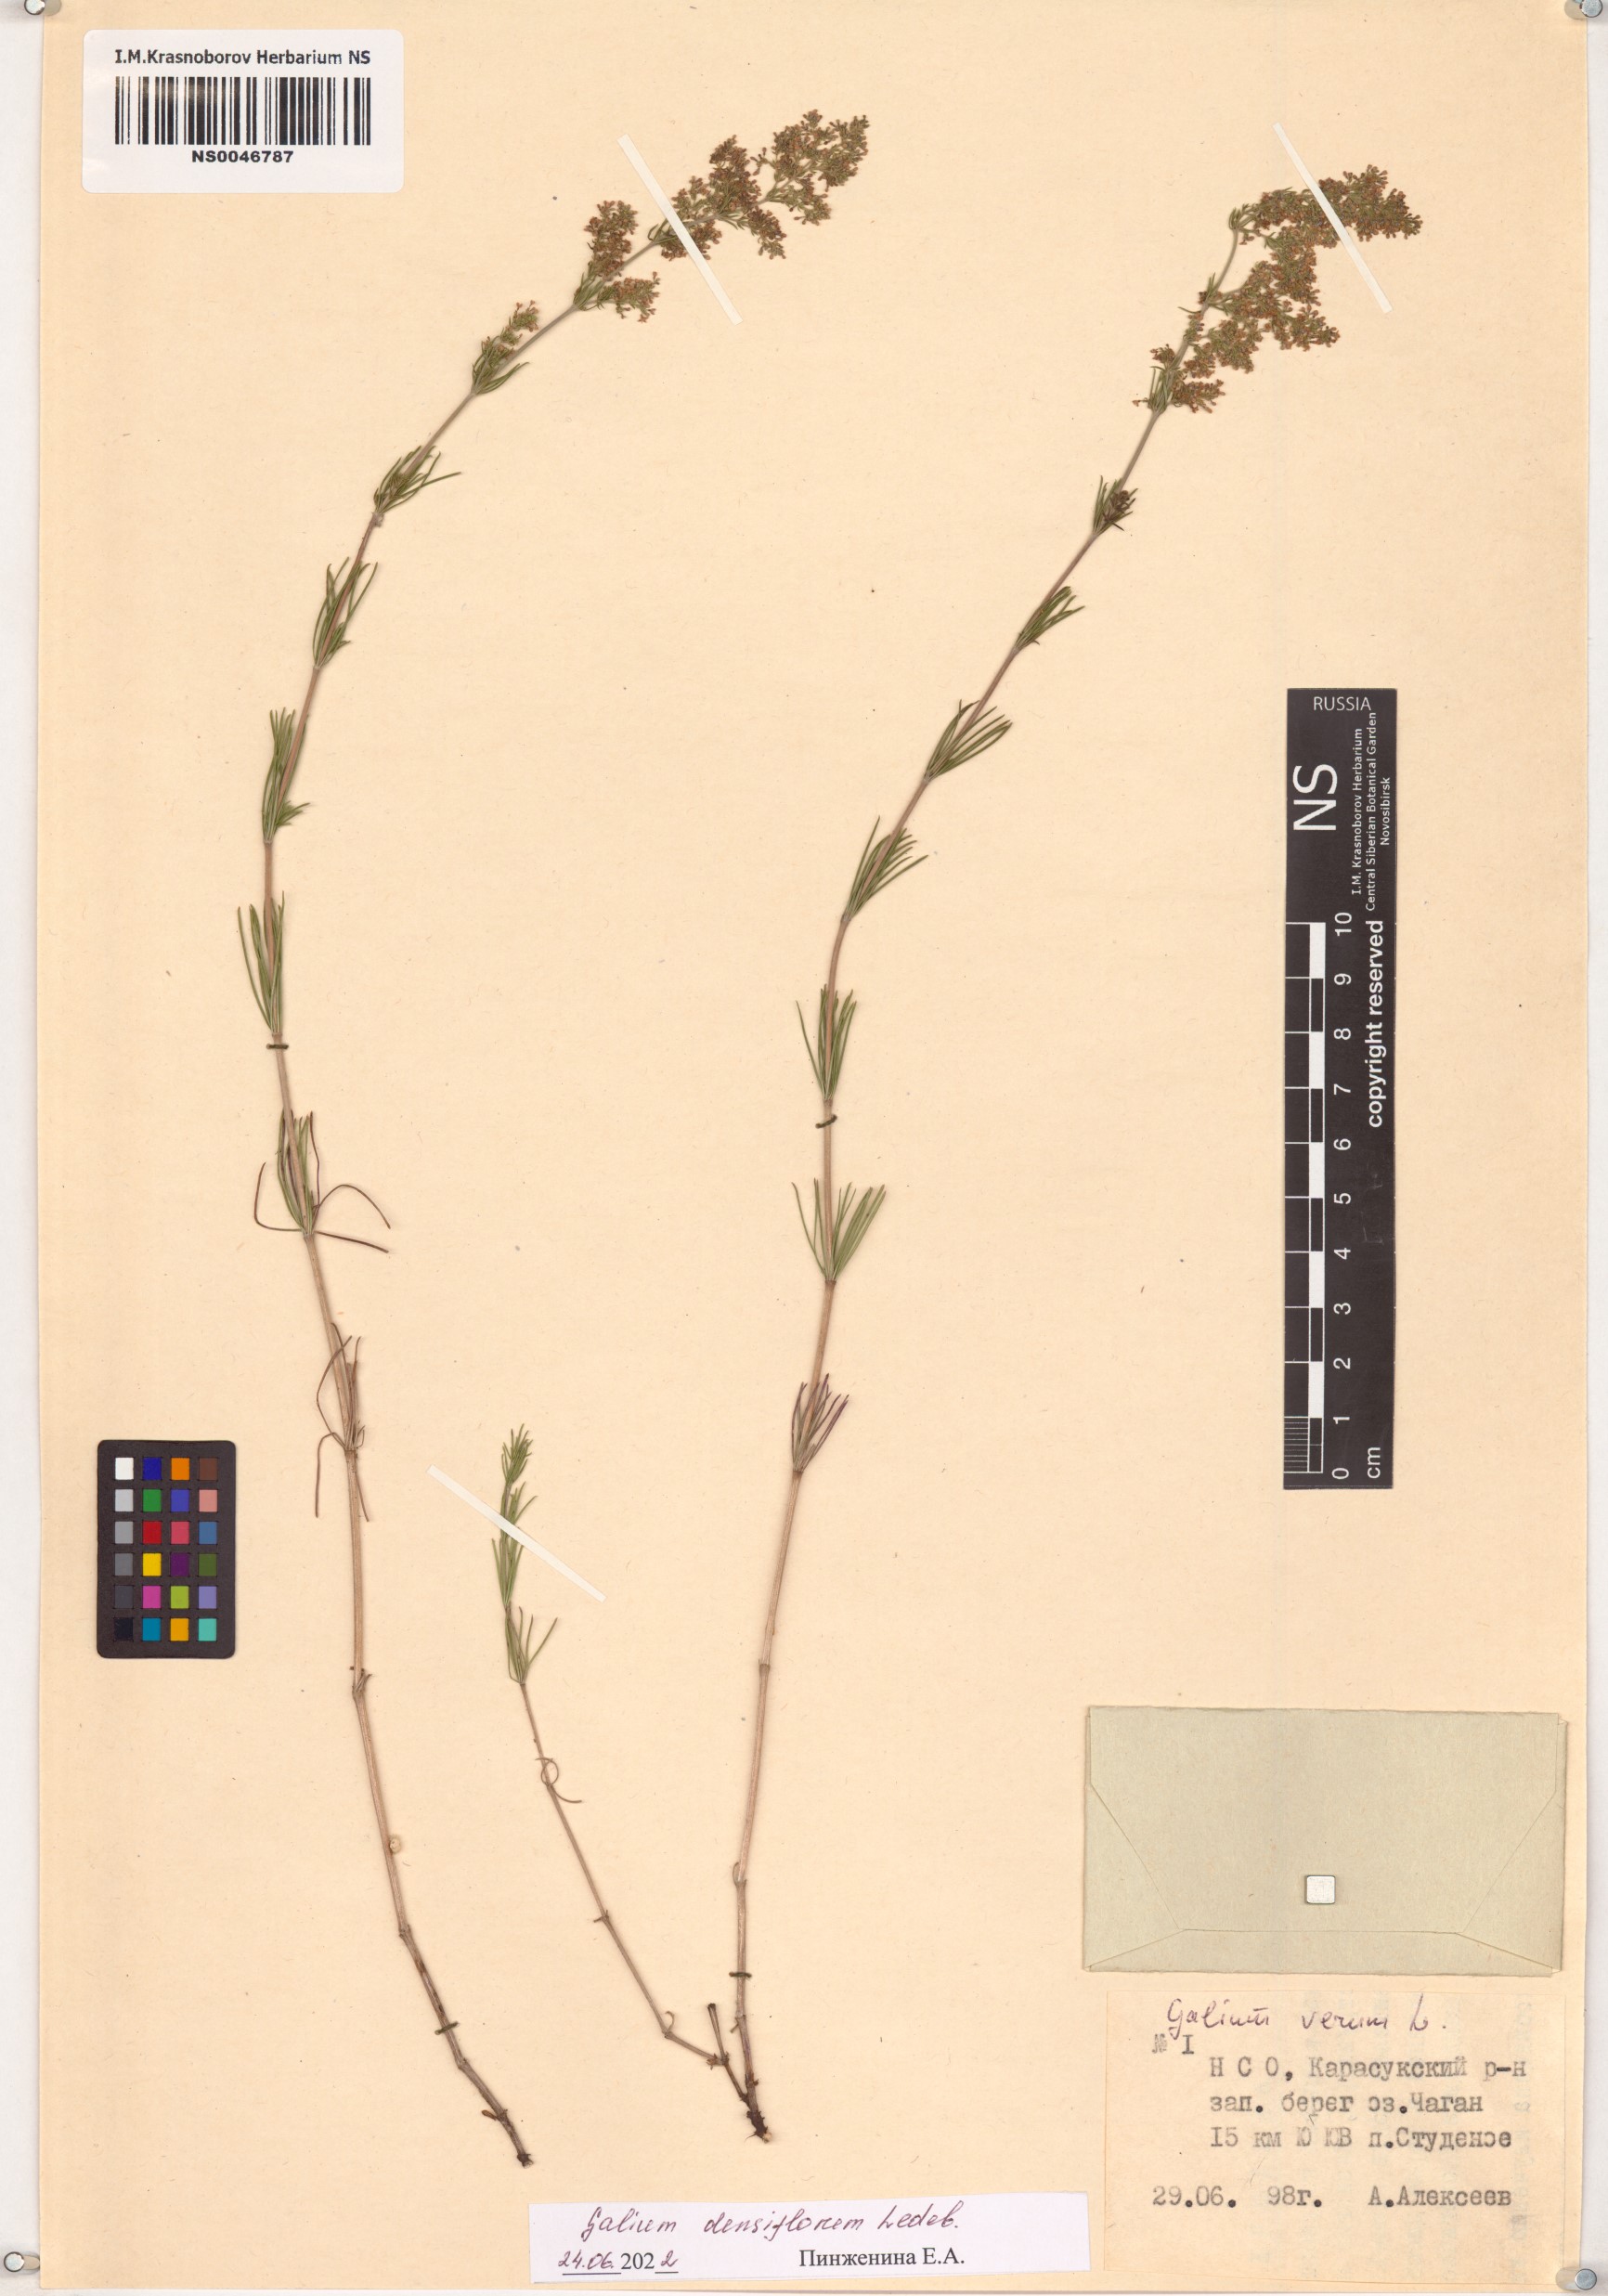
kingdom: Plantae
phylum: Tracheophyta
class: Magnoliopsida
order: Gentianales
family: Rubiaceae
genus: Galium
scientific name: Galium densiflorum
